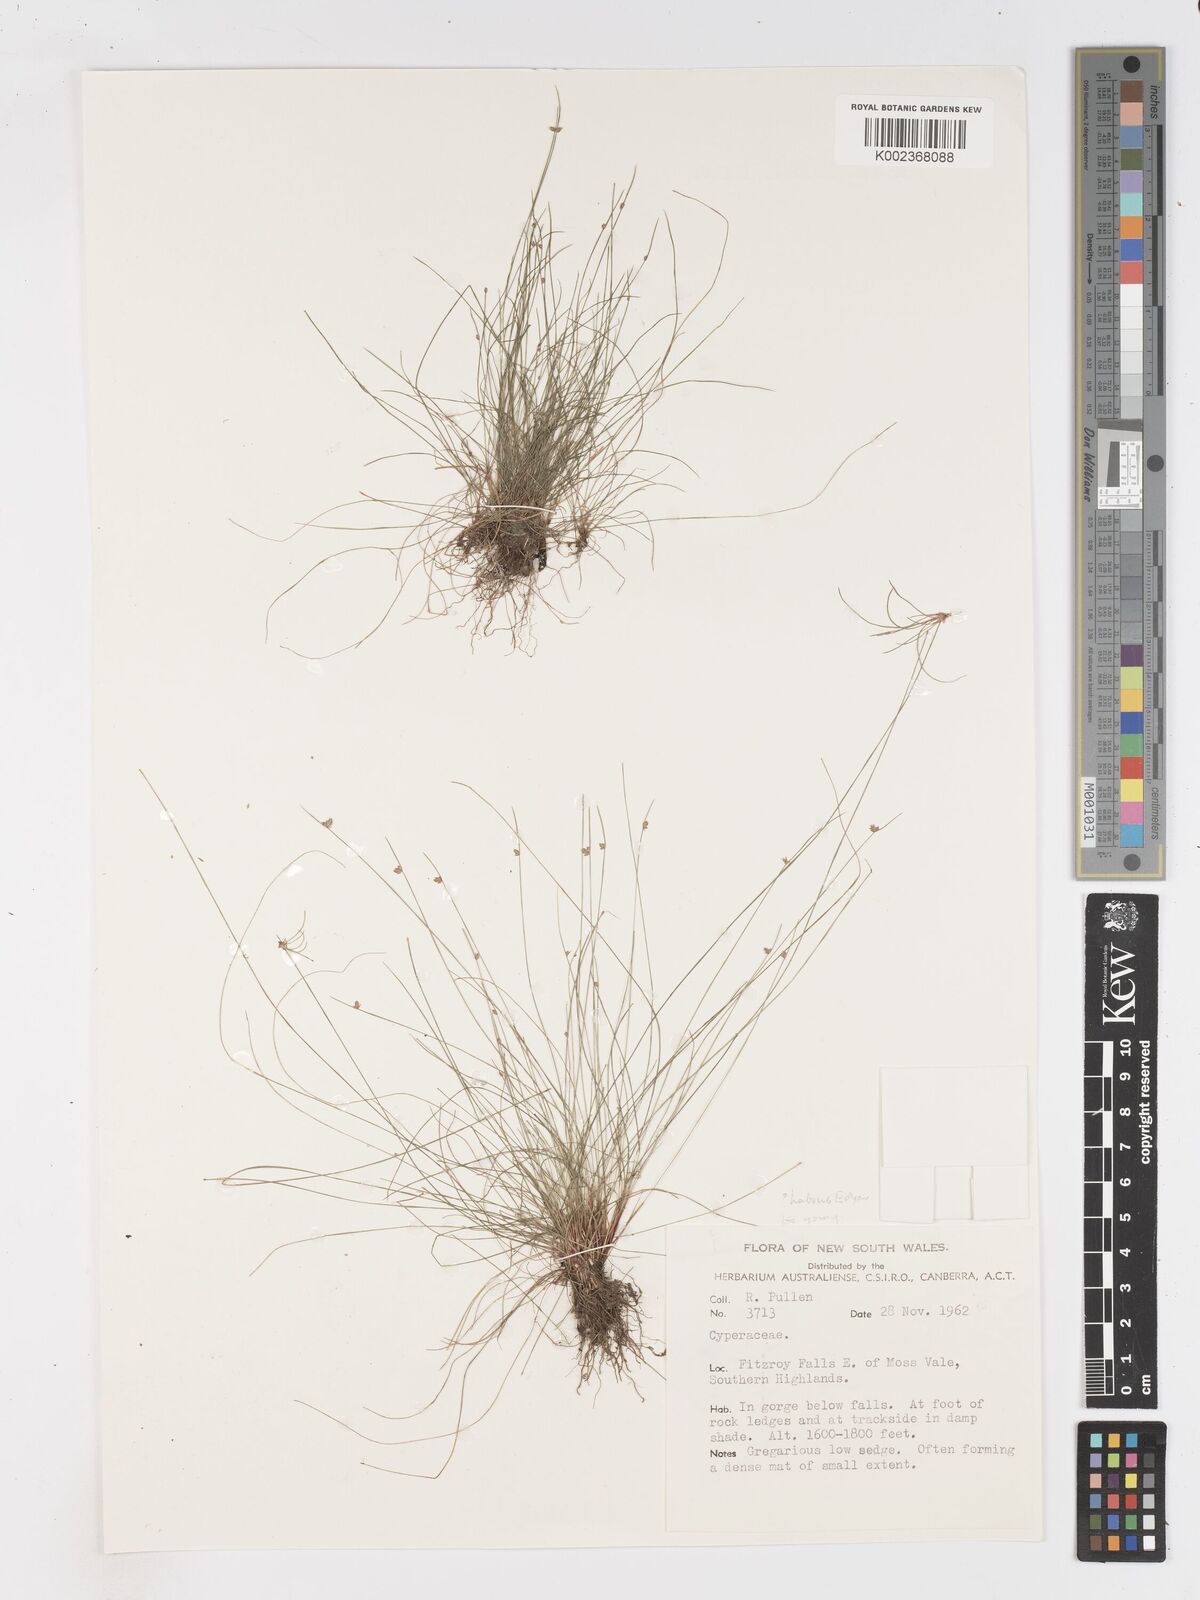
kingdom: Plantae
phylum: Tracheophyta
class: Liliopsida
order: Poales
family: Cyperaceae
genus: Isolepis
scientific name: Isolepis habra
